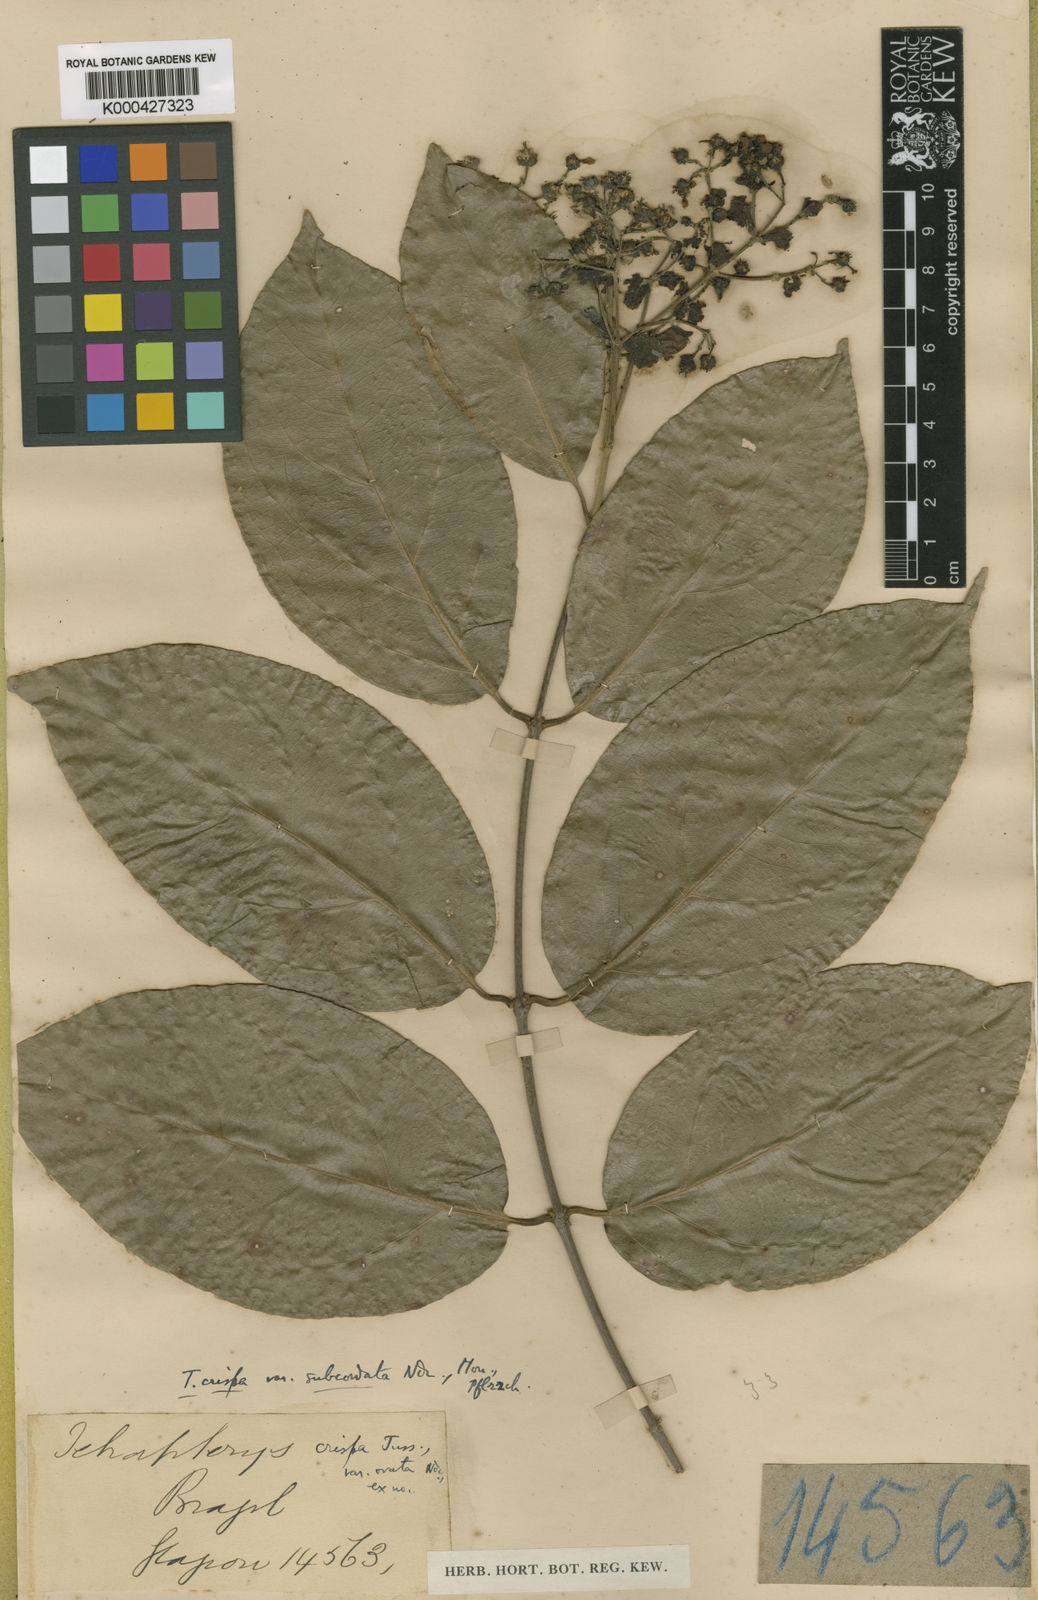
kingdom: Plantae
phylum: Tracheophyta
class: Magnoliopsida
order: Malpighiales
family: Malpighiaceae
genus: Tetrapterys
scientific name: Tetrapterys crispa
